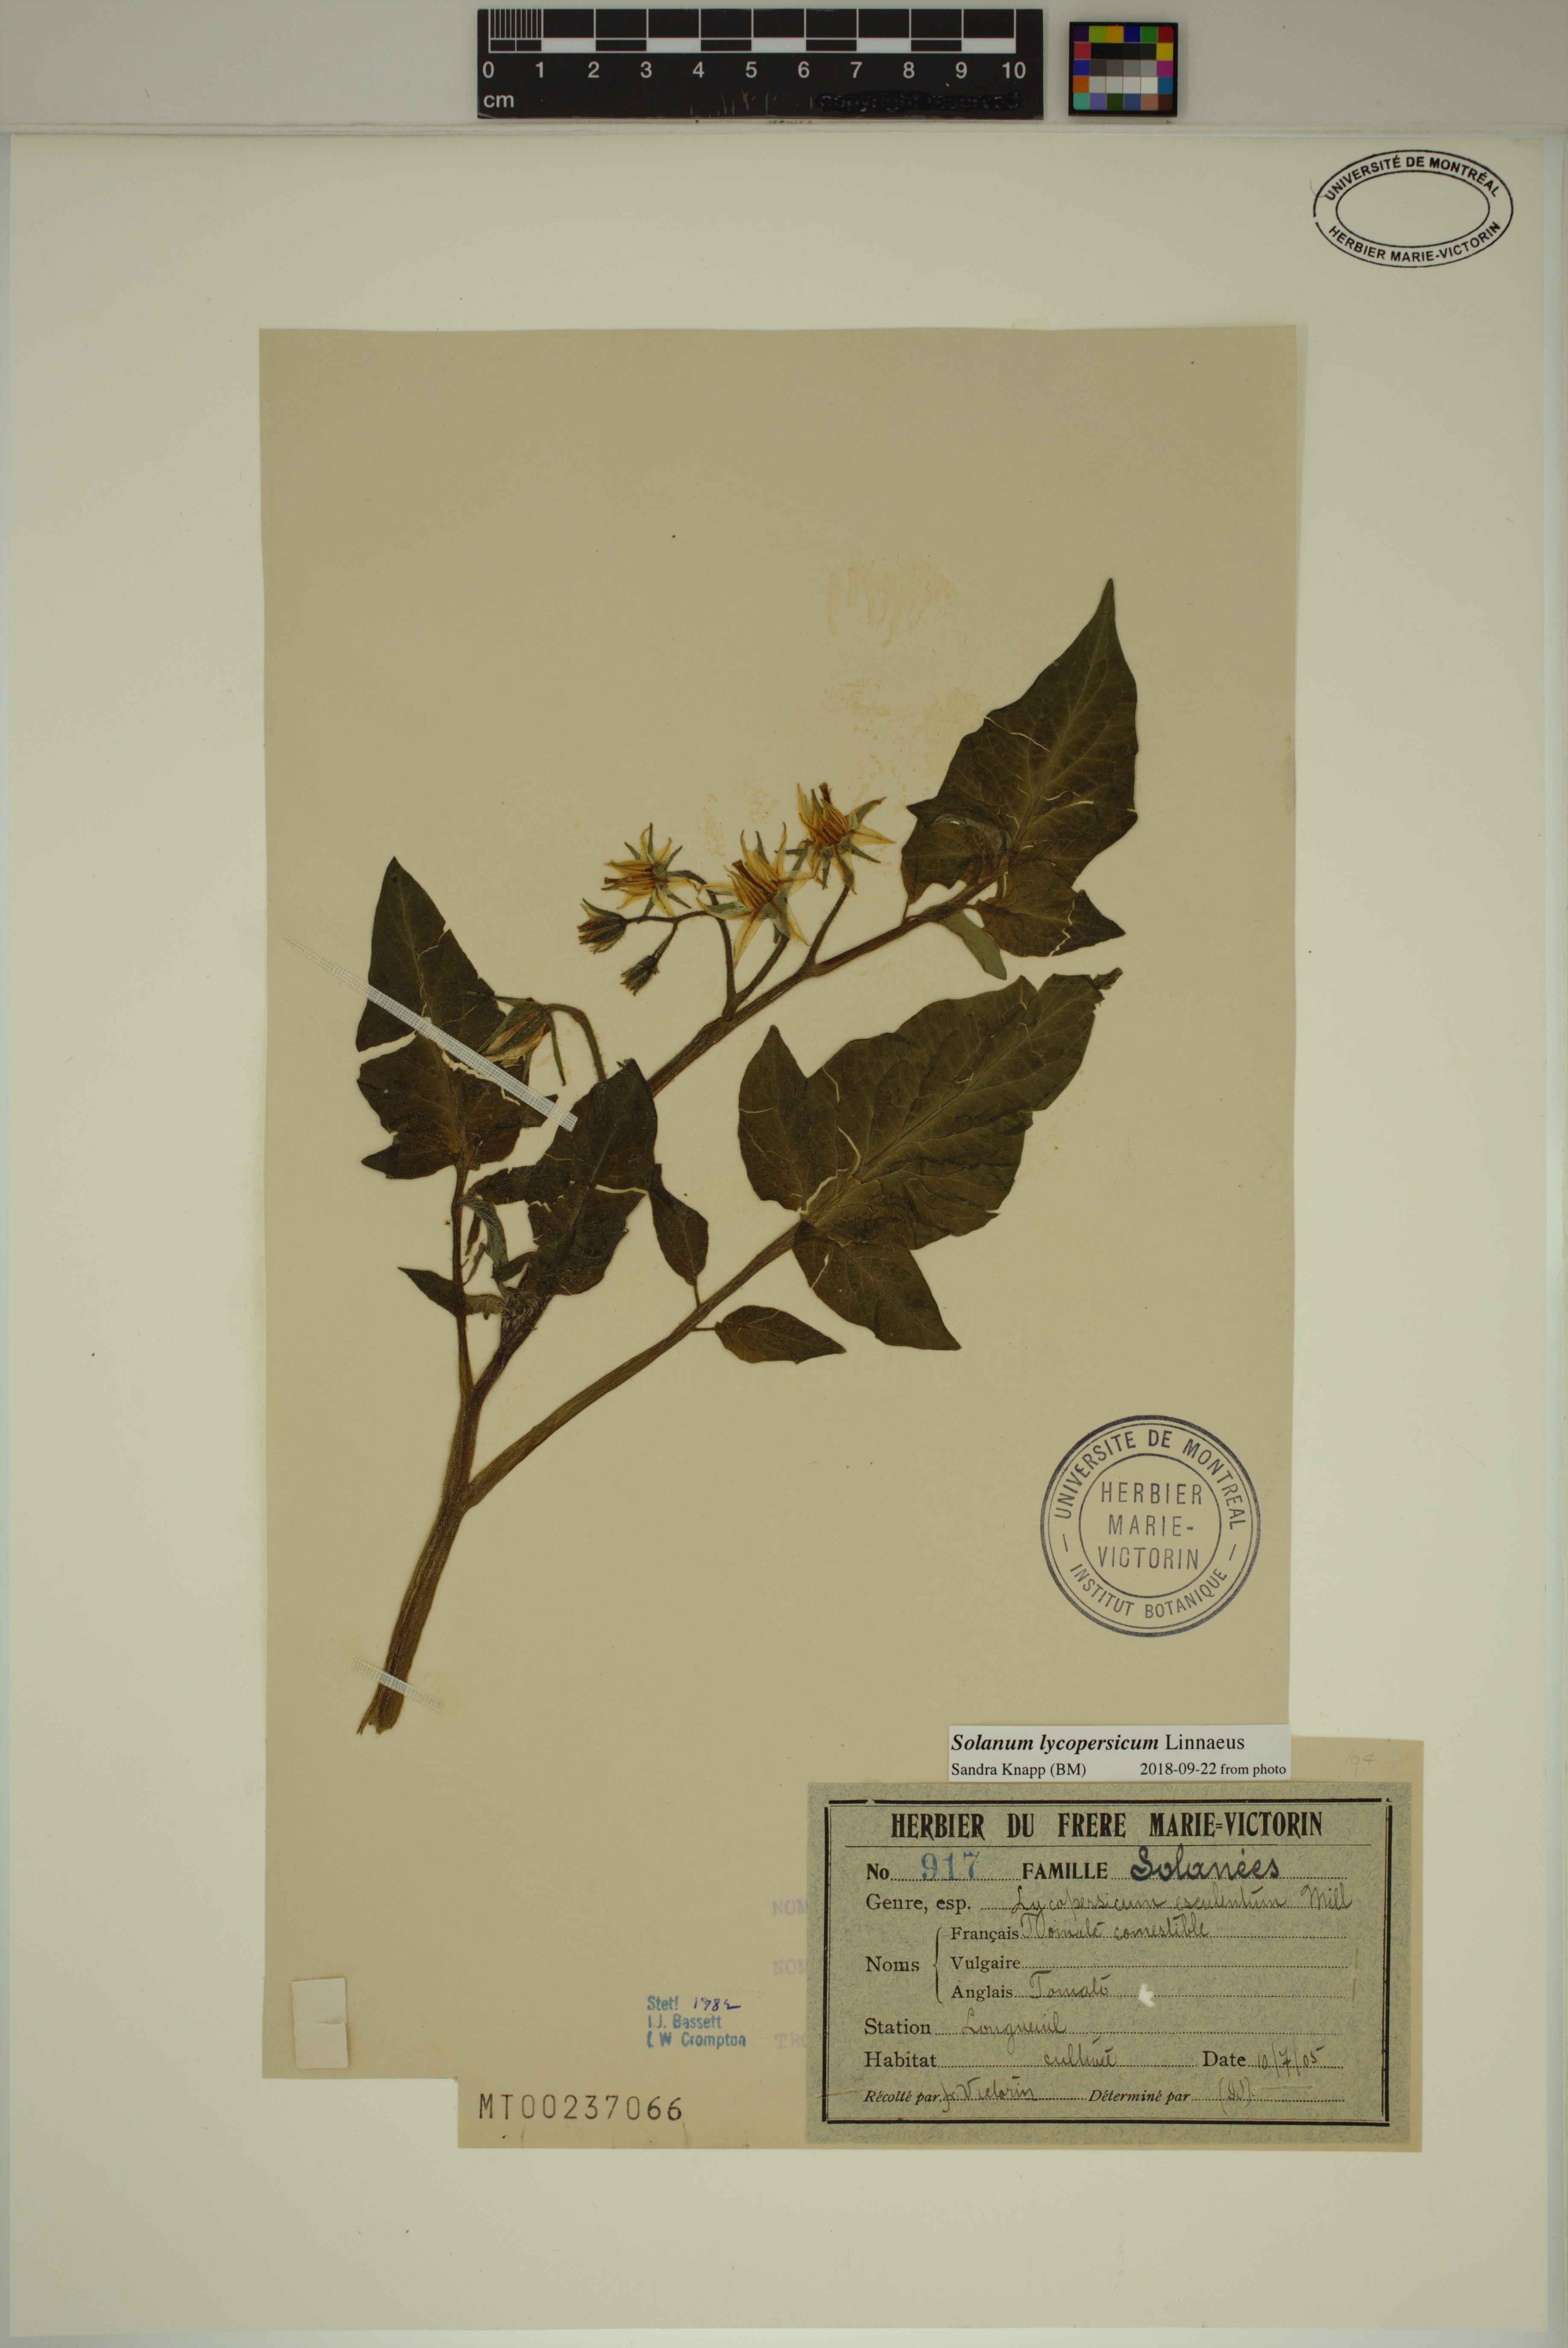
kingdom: Plantae
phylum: Tracheophyta
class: Magnoliopsida
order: Solanales
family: Solanaceae
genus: Solanum
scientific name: Solanum lycopersicum
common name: Garden tomato
